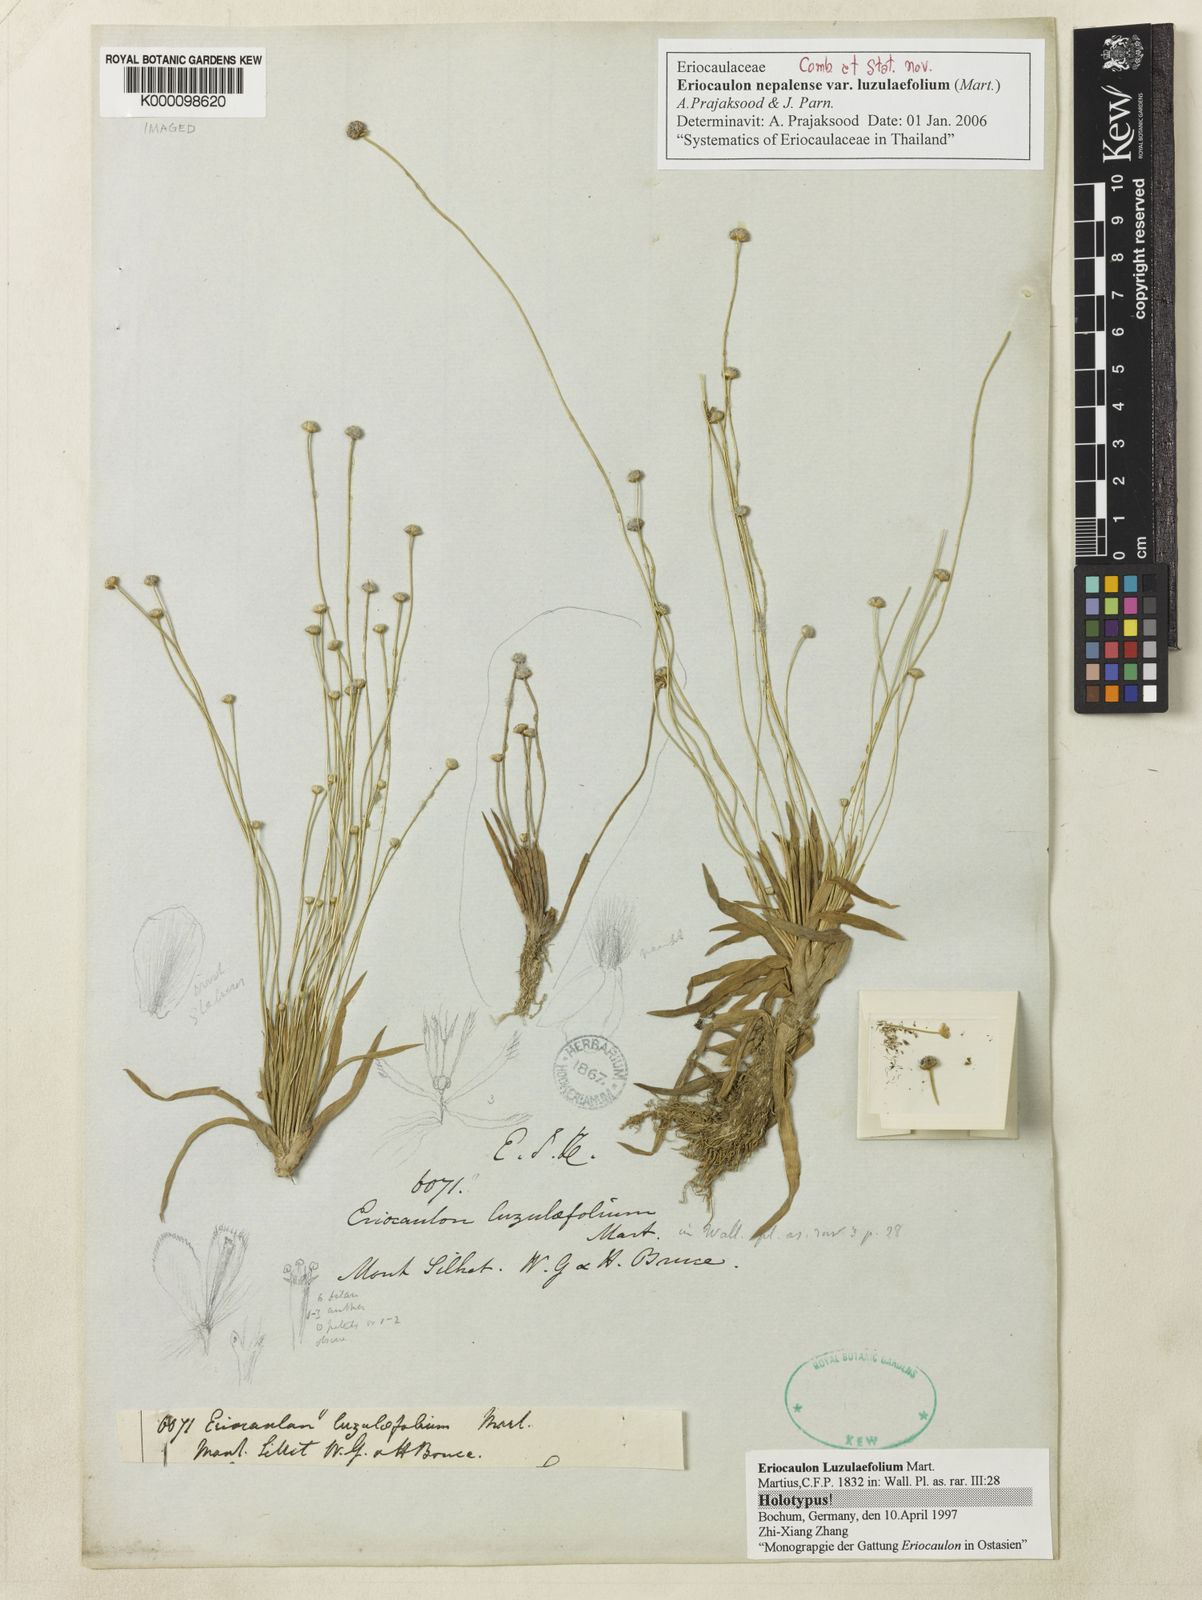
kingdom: Plantae
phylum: Tracheophyta
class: Liliopsida
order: Poales
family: Eriocaulaceae
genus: Eriocaulon
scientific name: Eriocaulon nepalense
